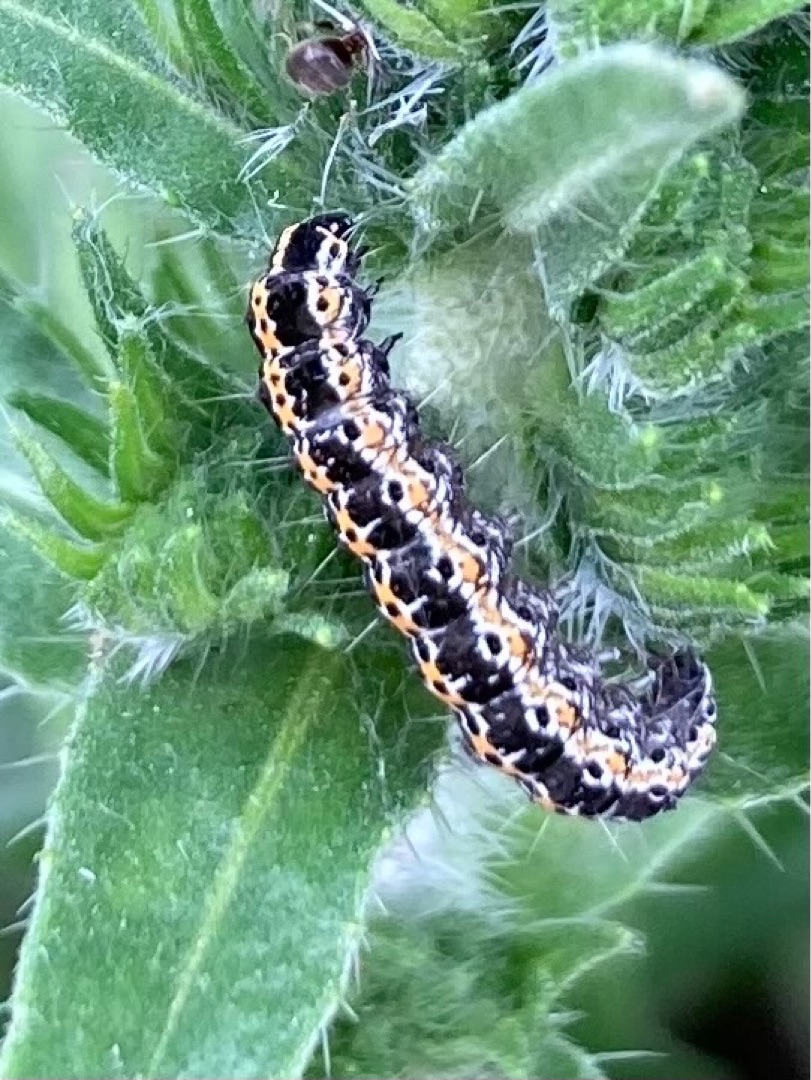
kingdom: Animalia
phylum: Arthropoda
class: Insecta
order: Lepidoptera
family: Ethmiidae
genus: Ethmia
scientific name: Ethmia bipunctella
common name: Slangehovedmøl
